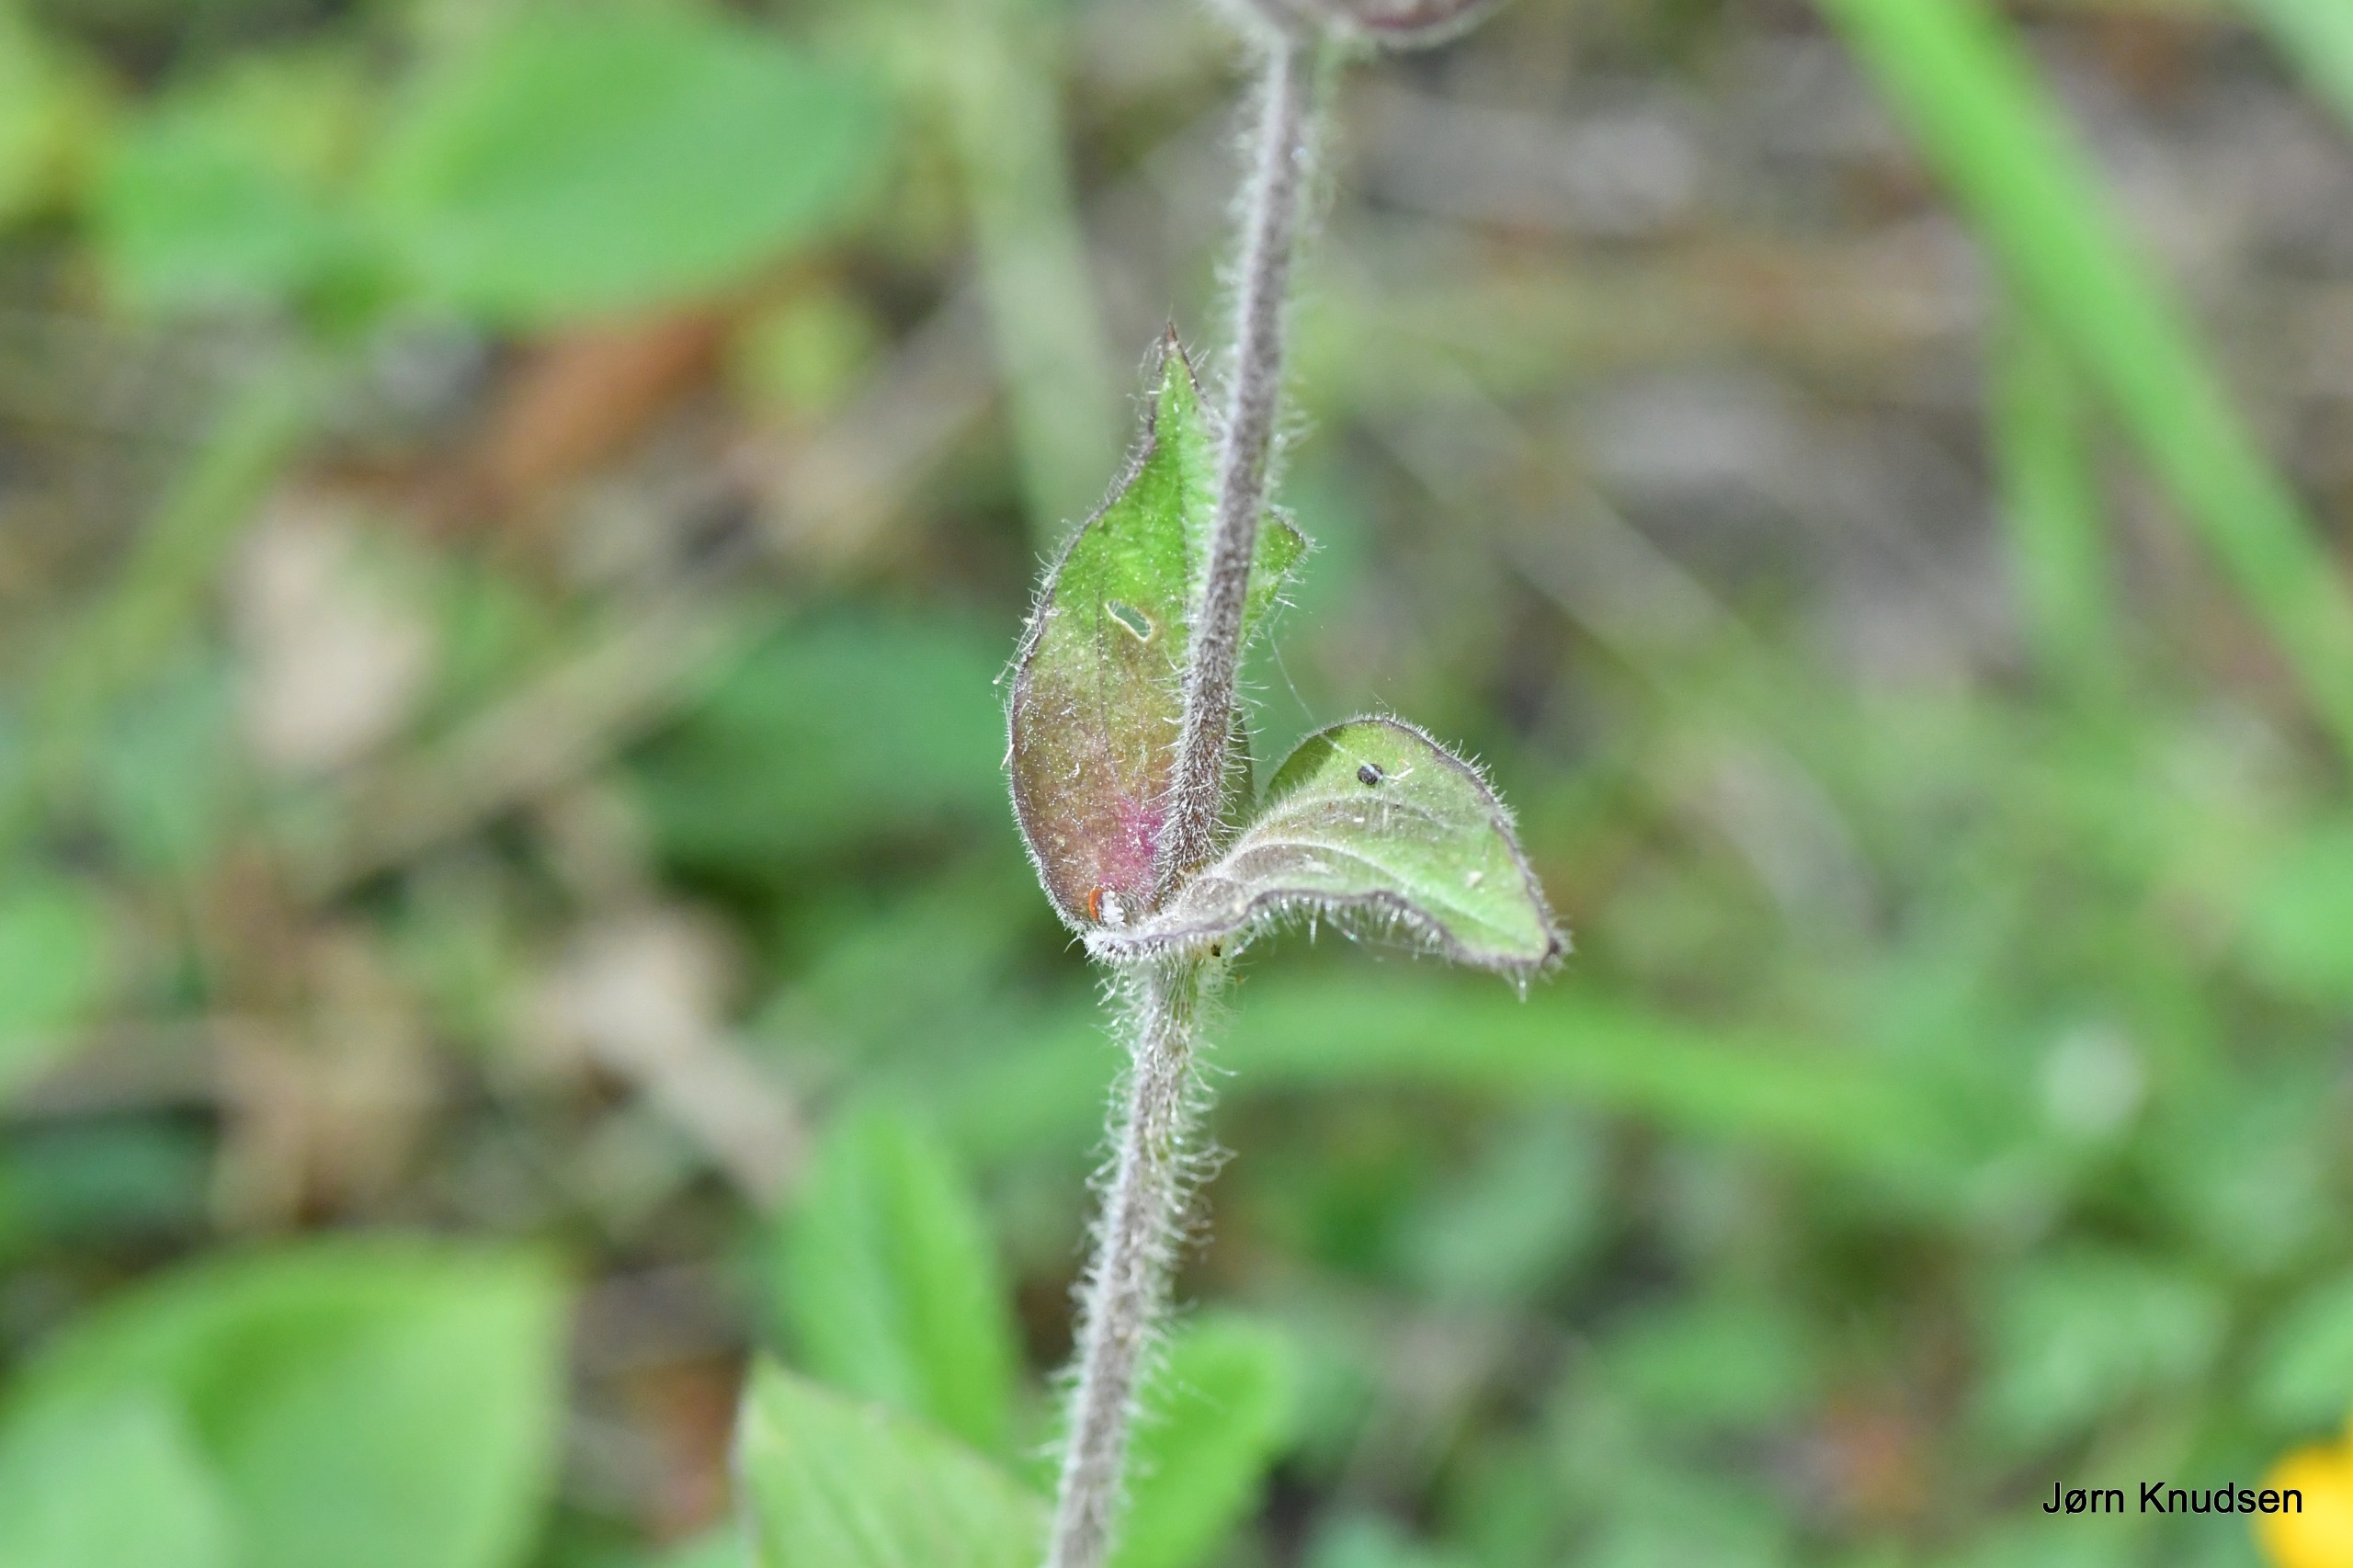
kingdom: Plantae
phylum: Tracheophyta
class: Magnoliopsida
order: Caryophyllales
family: Caryophyllaceae
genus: Silene
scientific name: Silene dioica
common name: Dagpragtstjerne
